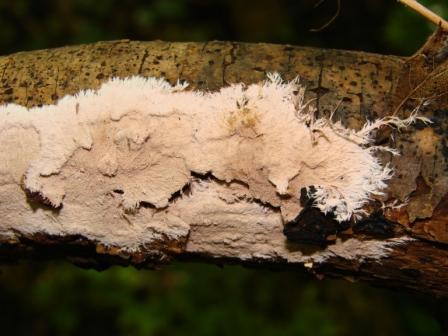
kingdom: Fungi
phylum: Basidiomycota
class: Agaricomycetes
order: Polyporales
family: Steccherinaceae
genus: Steccherinum
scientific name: Steccherinum fimbriatum
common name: trådet skønpig
